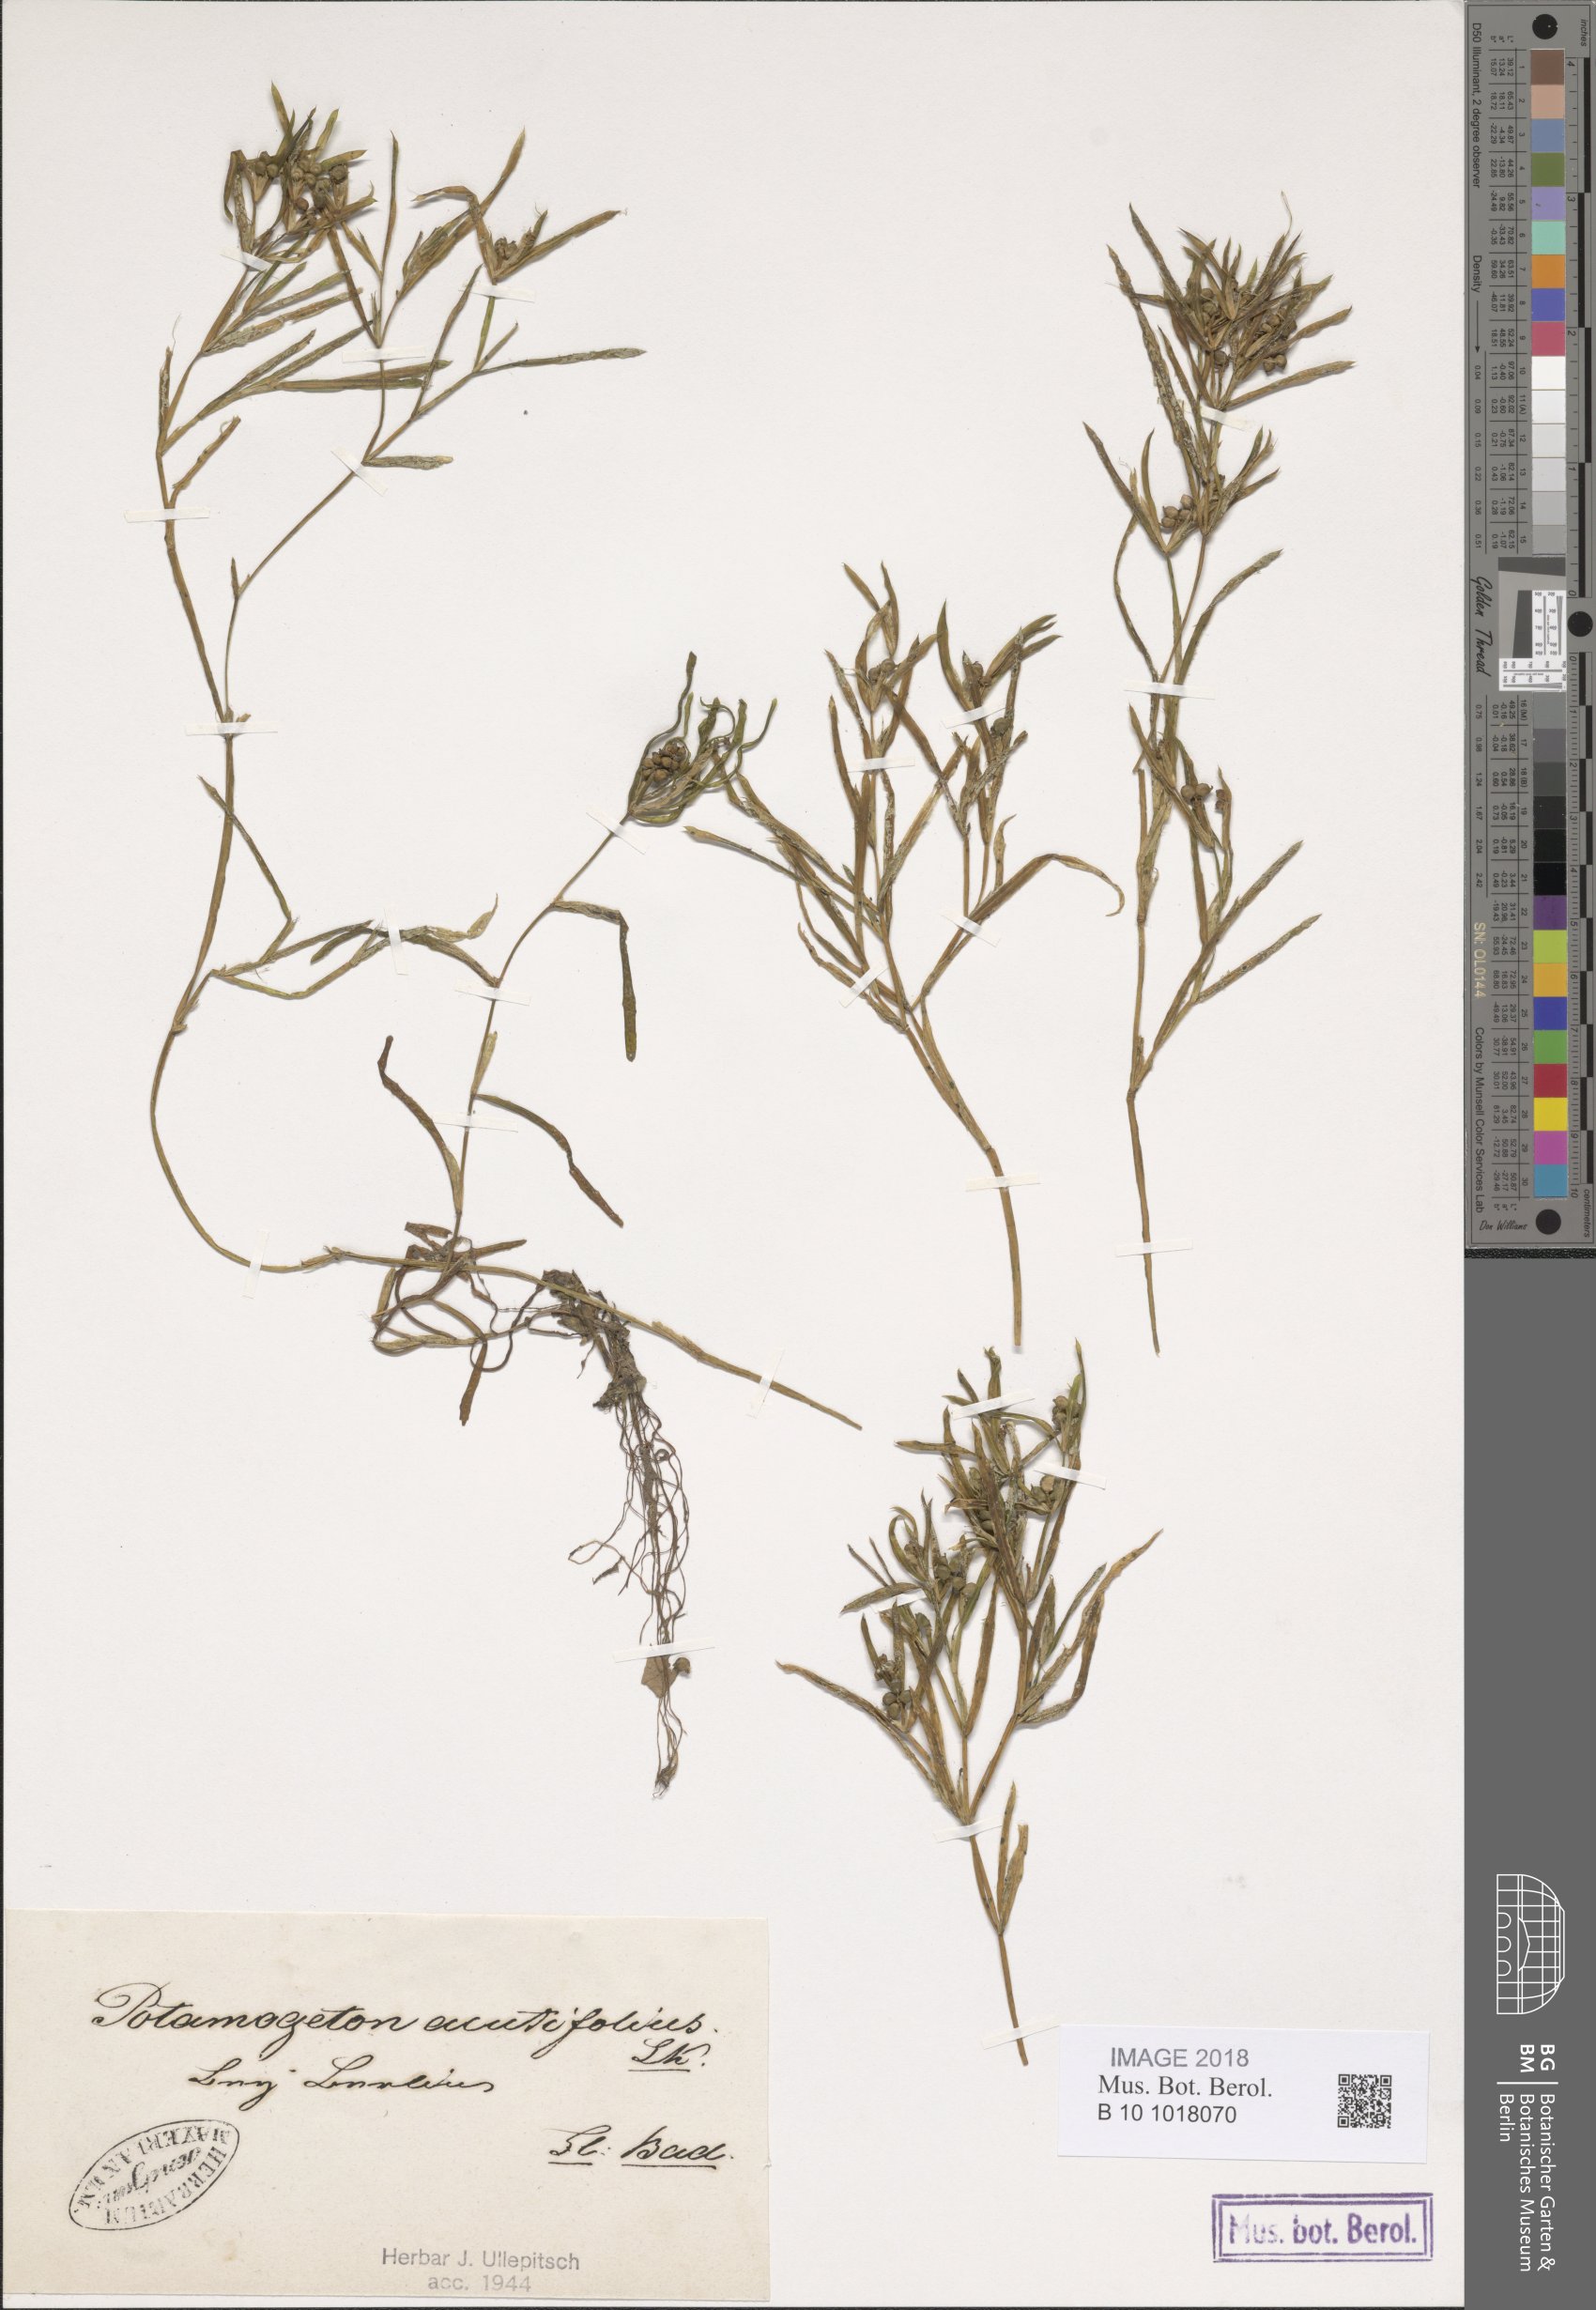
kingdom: Plantae
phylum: Tracheophyta
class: Liliopsida
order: Alismatales
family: Potamogetonaceae
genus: Potamogeton
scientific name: Potamogeton acutifolius
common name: Sharp-leaved pondweed
